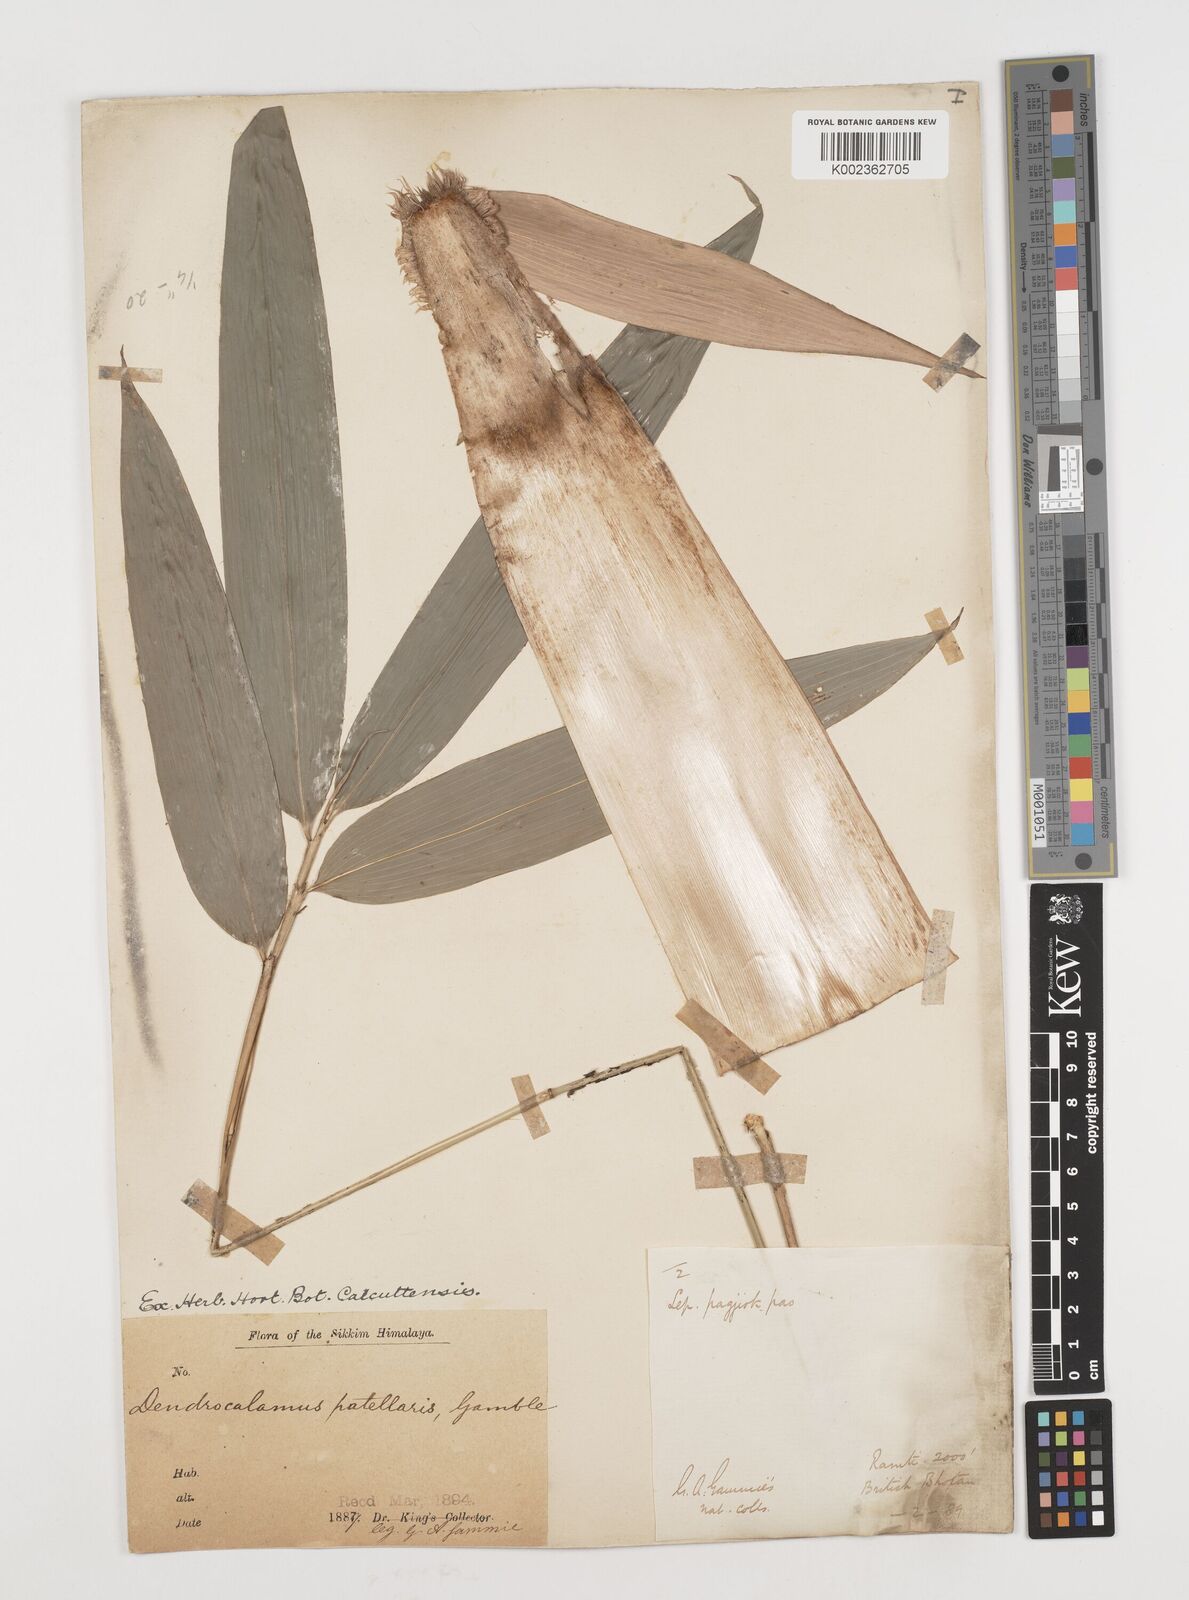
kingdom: Plantae
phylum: Tracheophyta
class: Liliopsida
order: Poales
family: Poaceae
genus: Ampelocalamus
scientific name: Ampelocalamus patellaris
